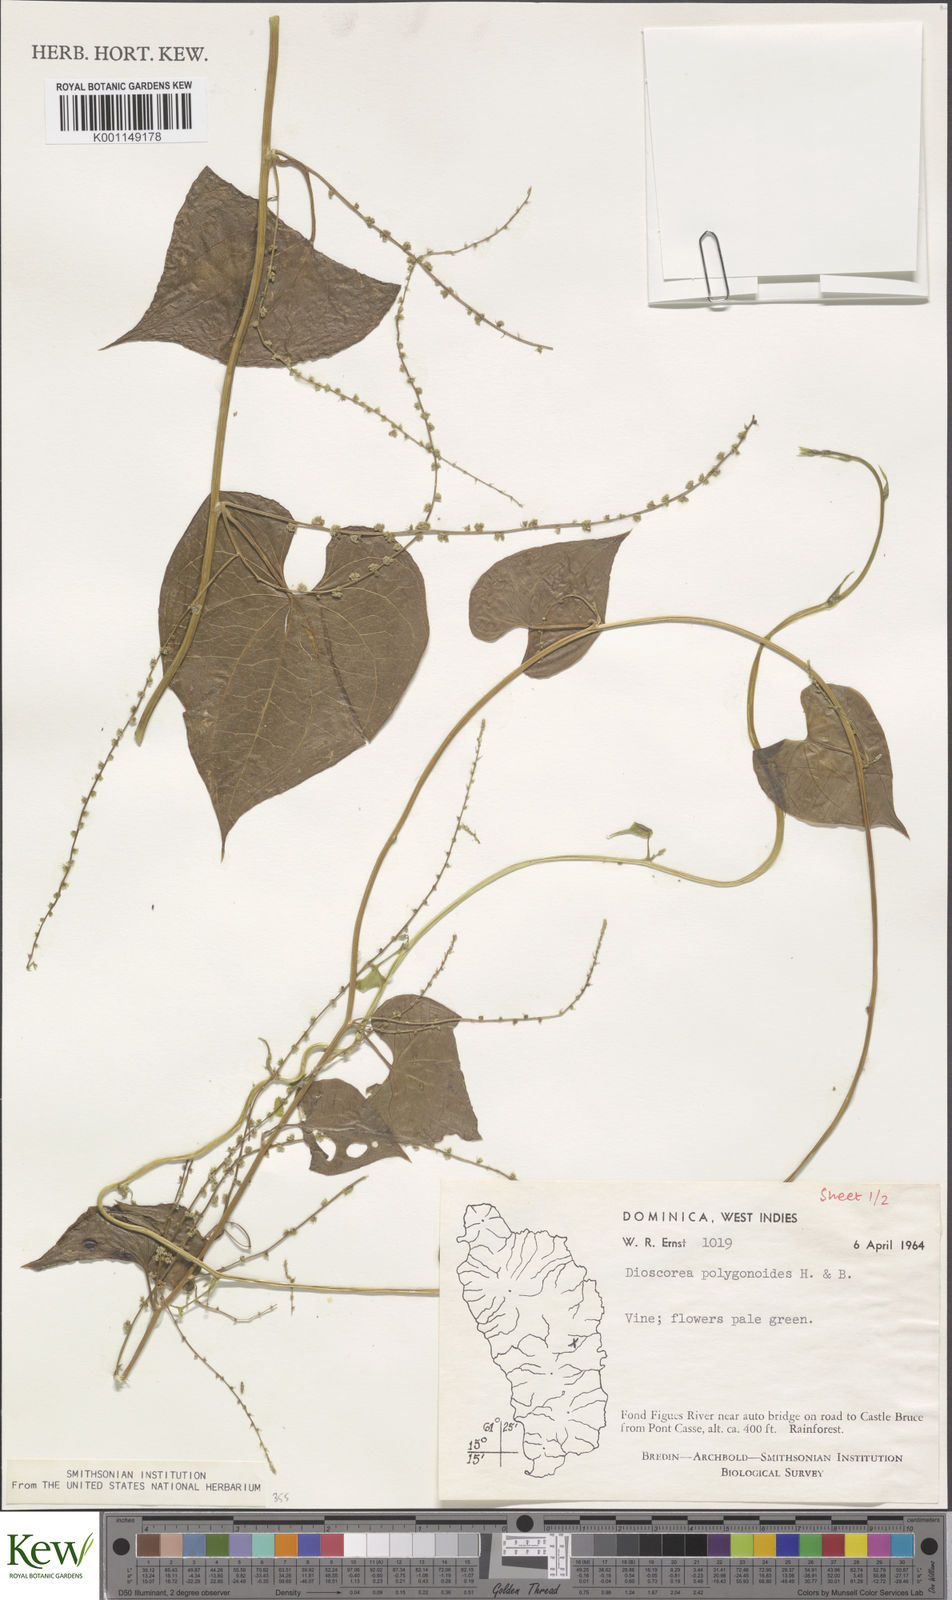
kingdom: Plantae
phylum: Tracheophyta
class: Liliopsida
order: Dioscoreales
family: Dioscoreaceae
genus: Dioscorea
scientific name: Dioscorea polygonoides
